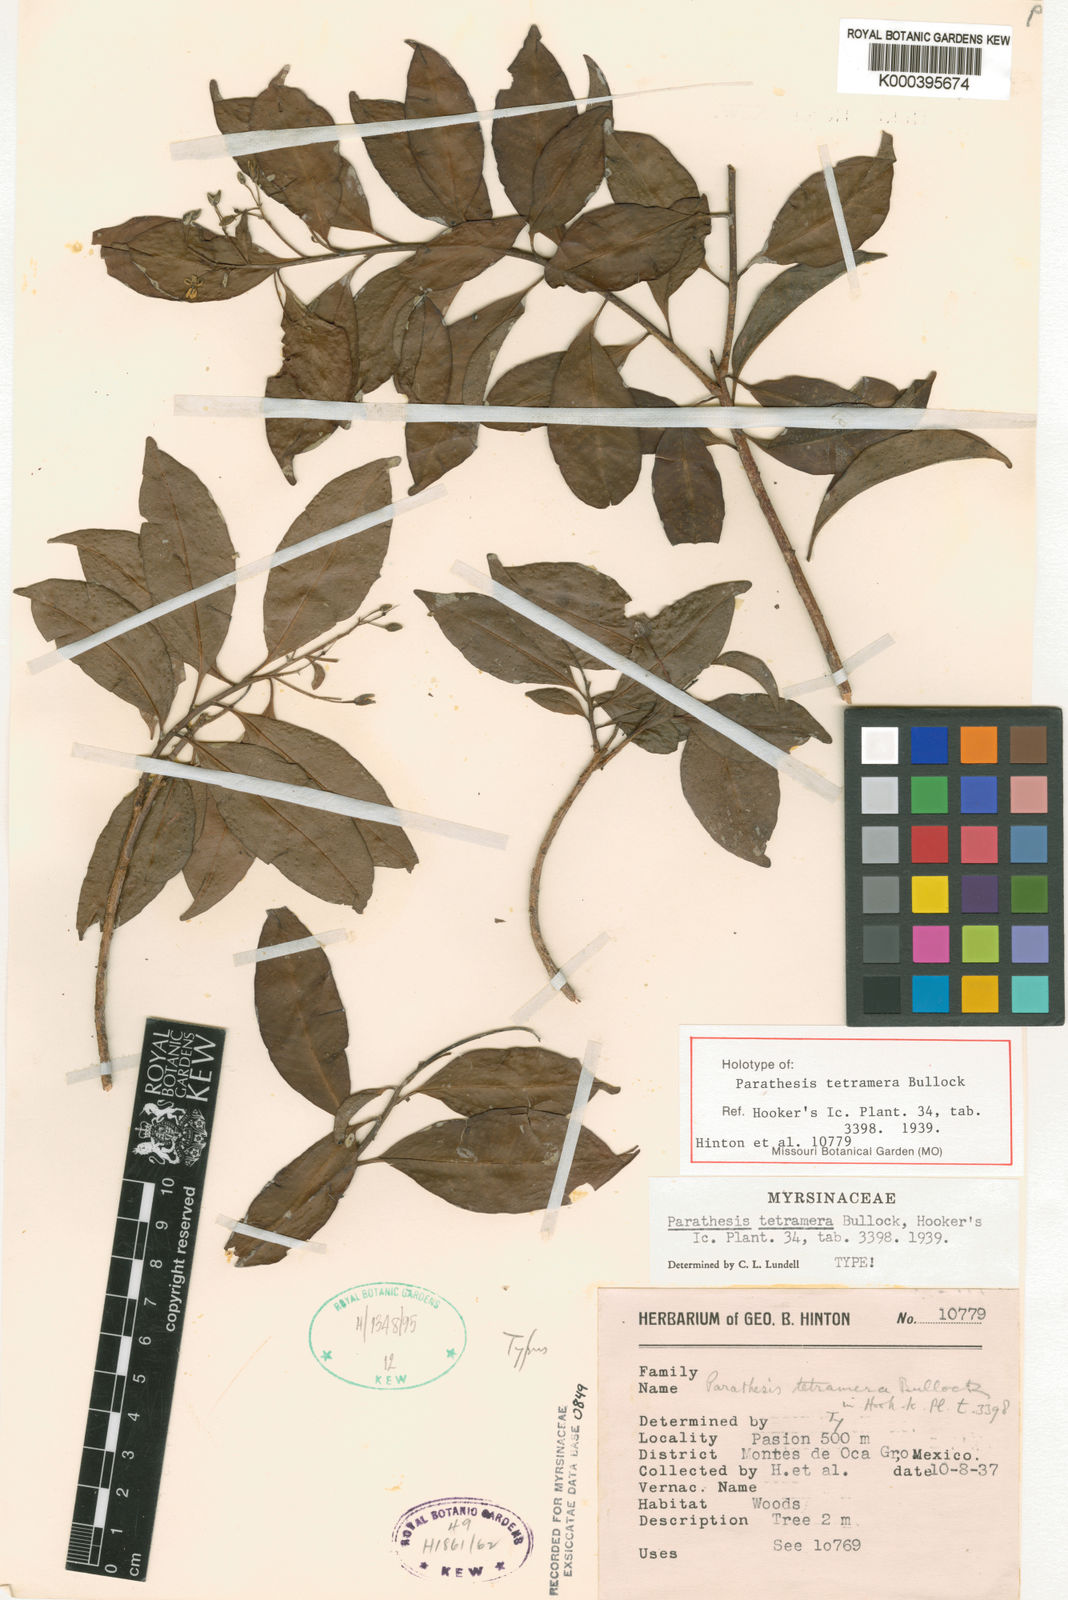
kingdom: Plantae
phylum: Tracheophyta
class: Magnoliopsida
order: Ericales
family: Primulaceae
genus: Parathesis
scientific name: Parathesis tetramera
